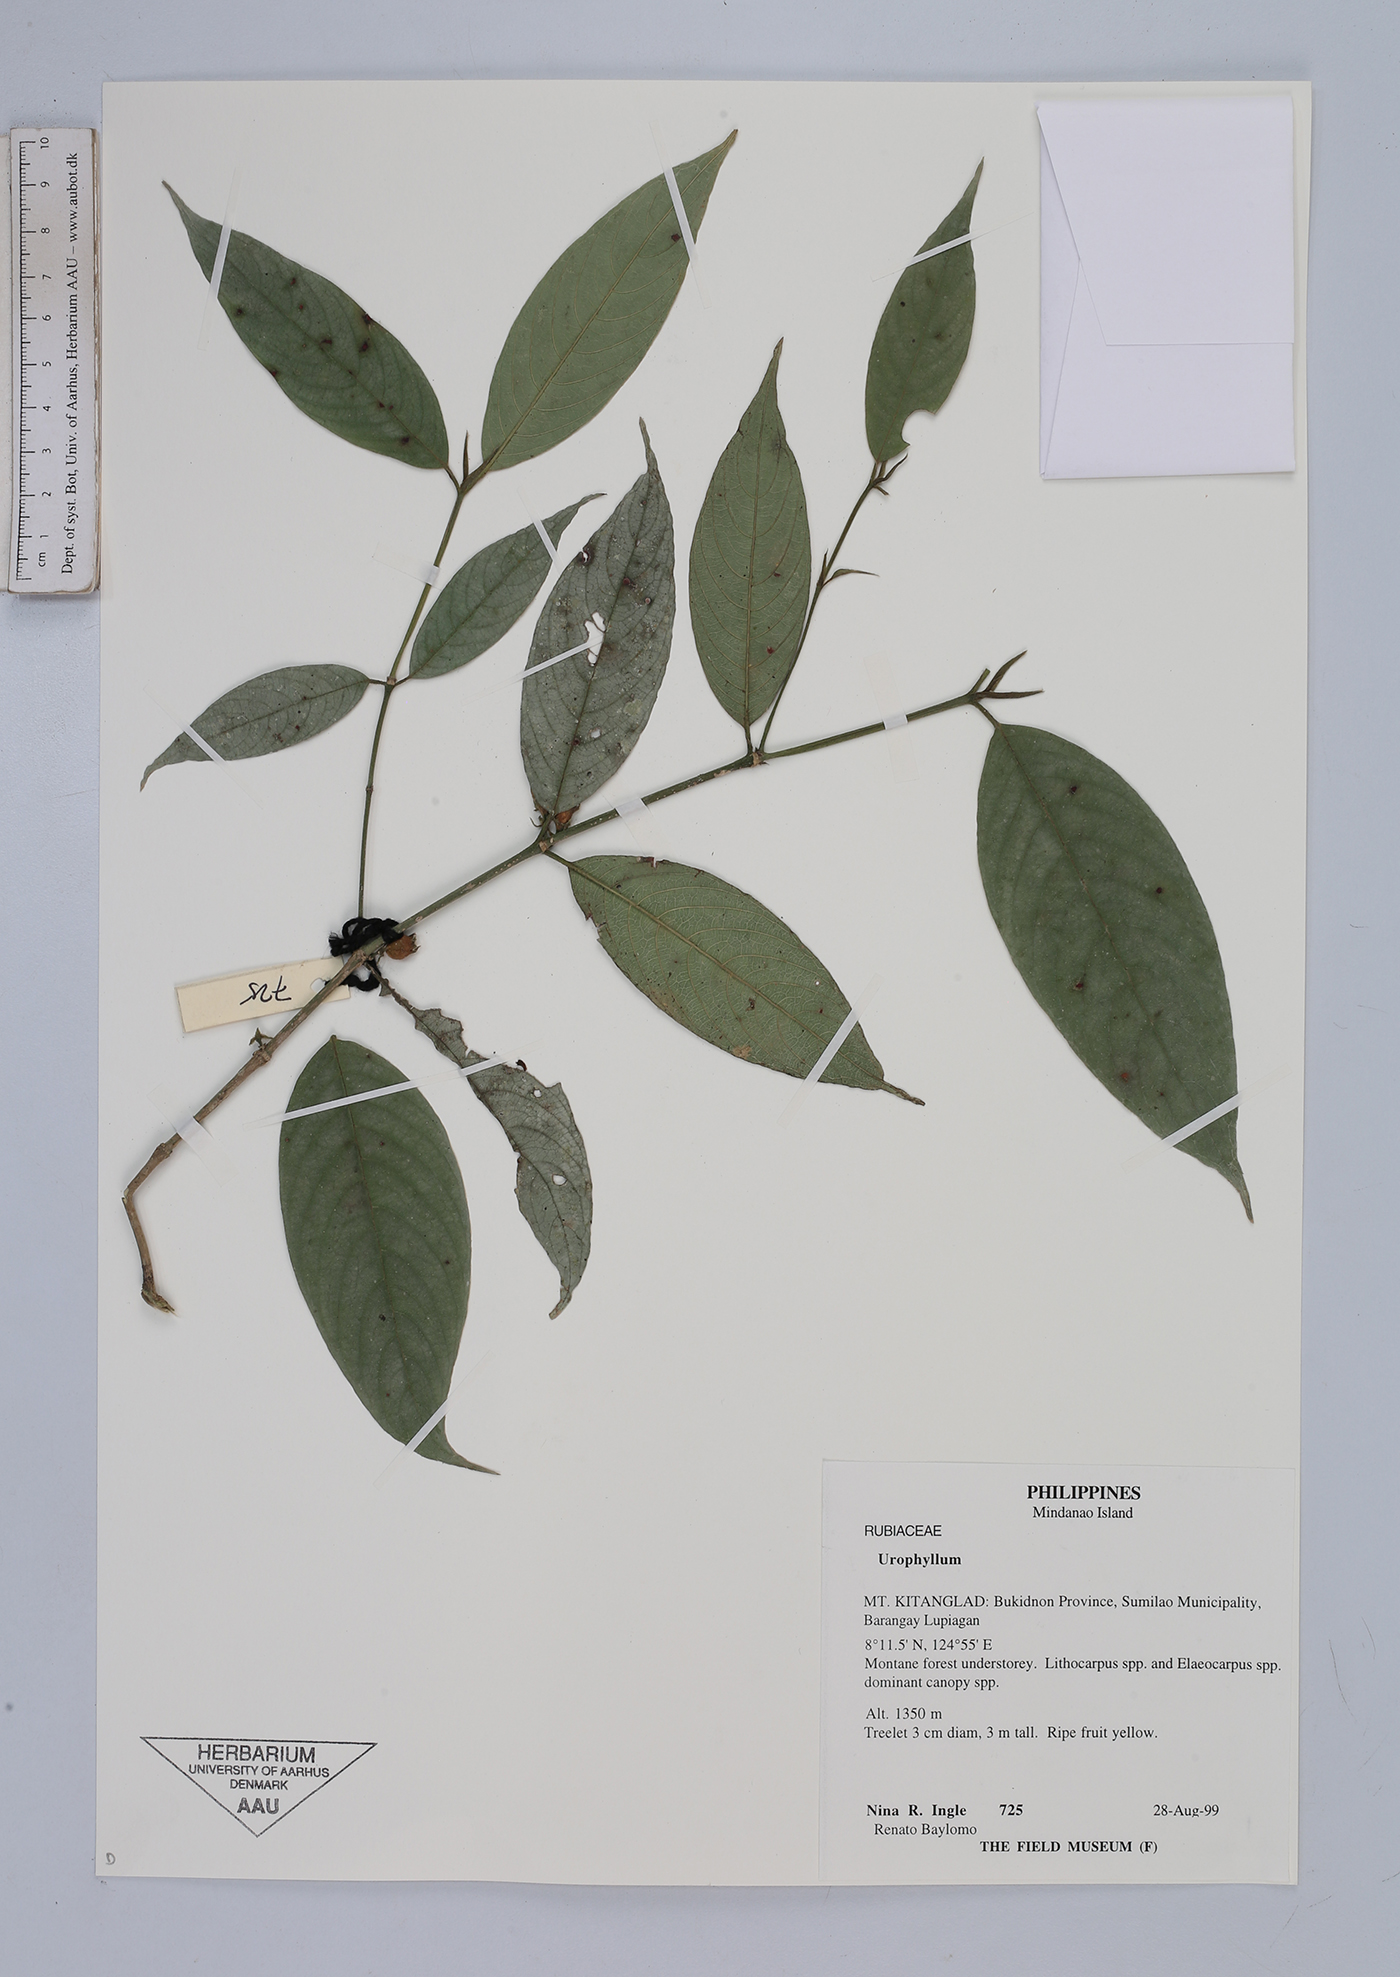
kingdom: Plantae
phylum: Tracheophyta
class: Magnoliopsida
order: Gentianales
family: Rubiaceae
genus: Urophyllum
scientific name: Urophyllum
